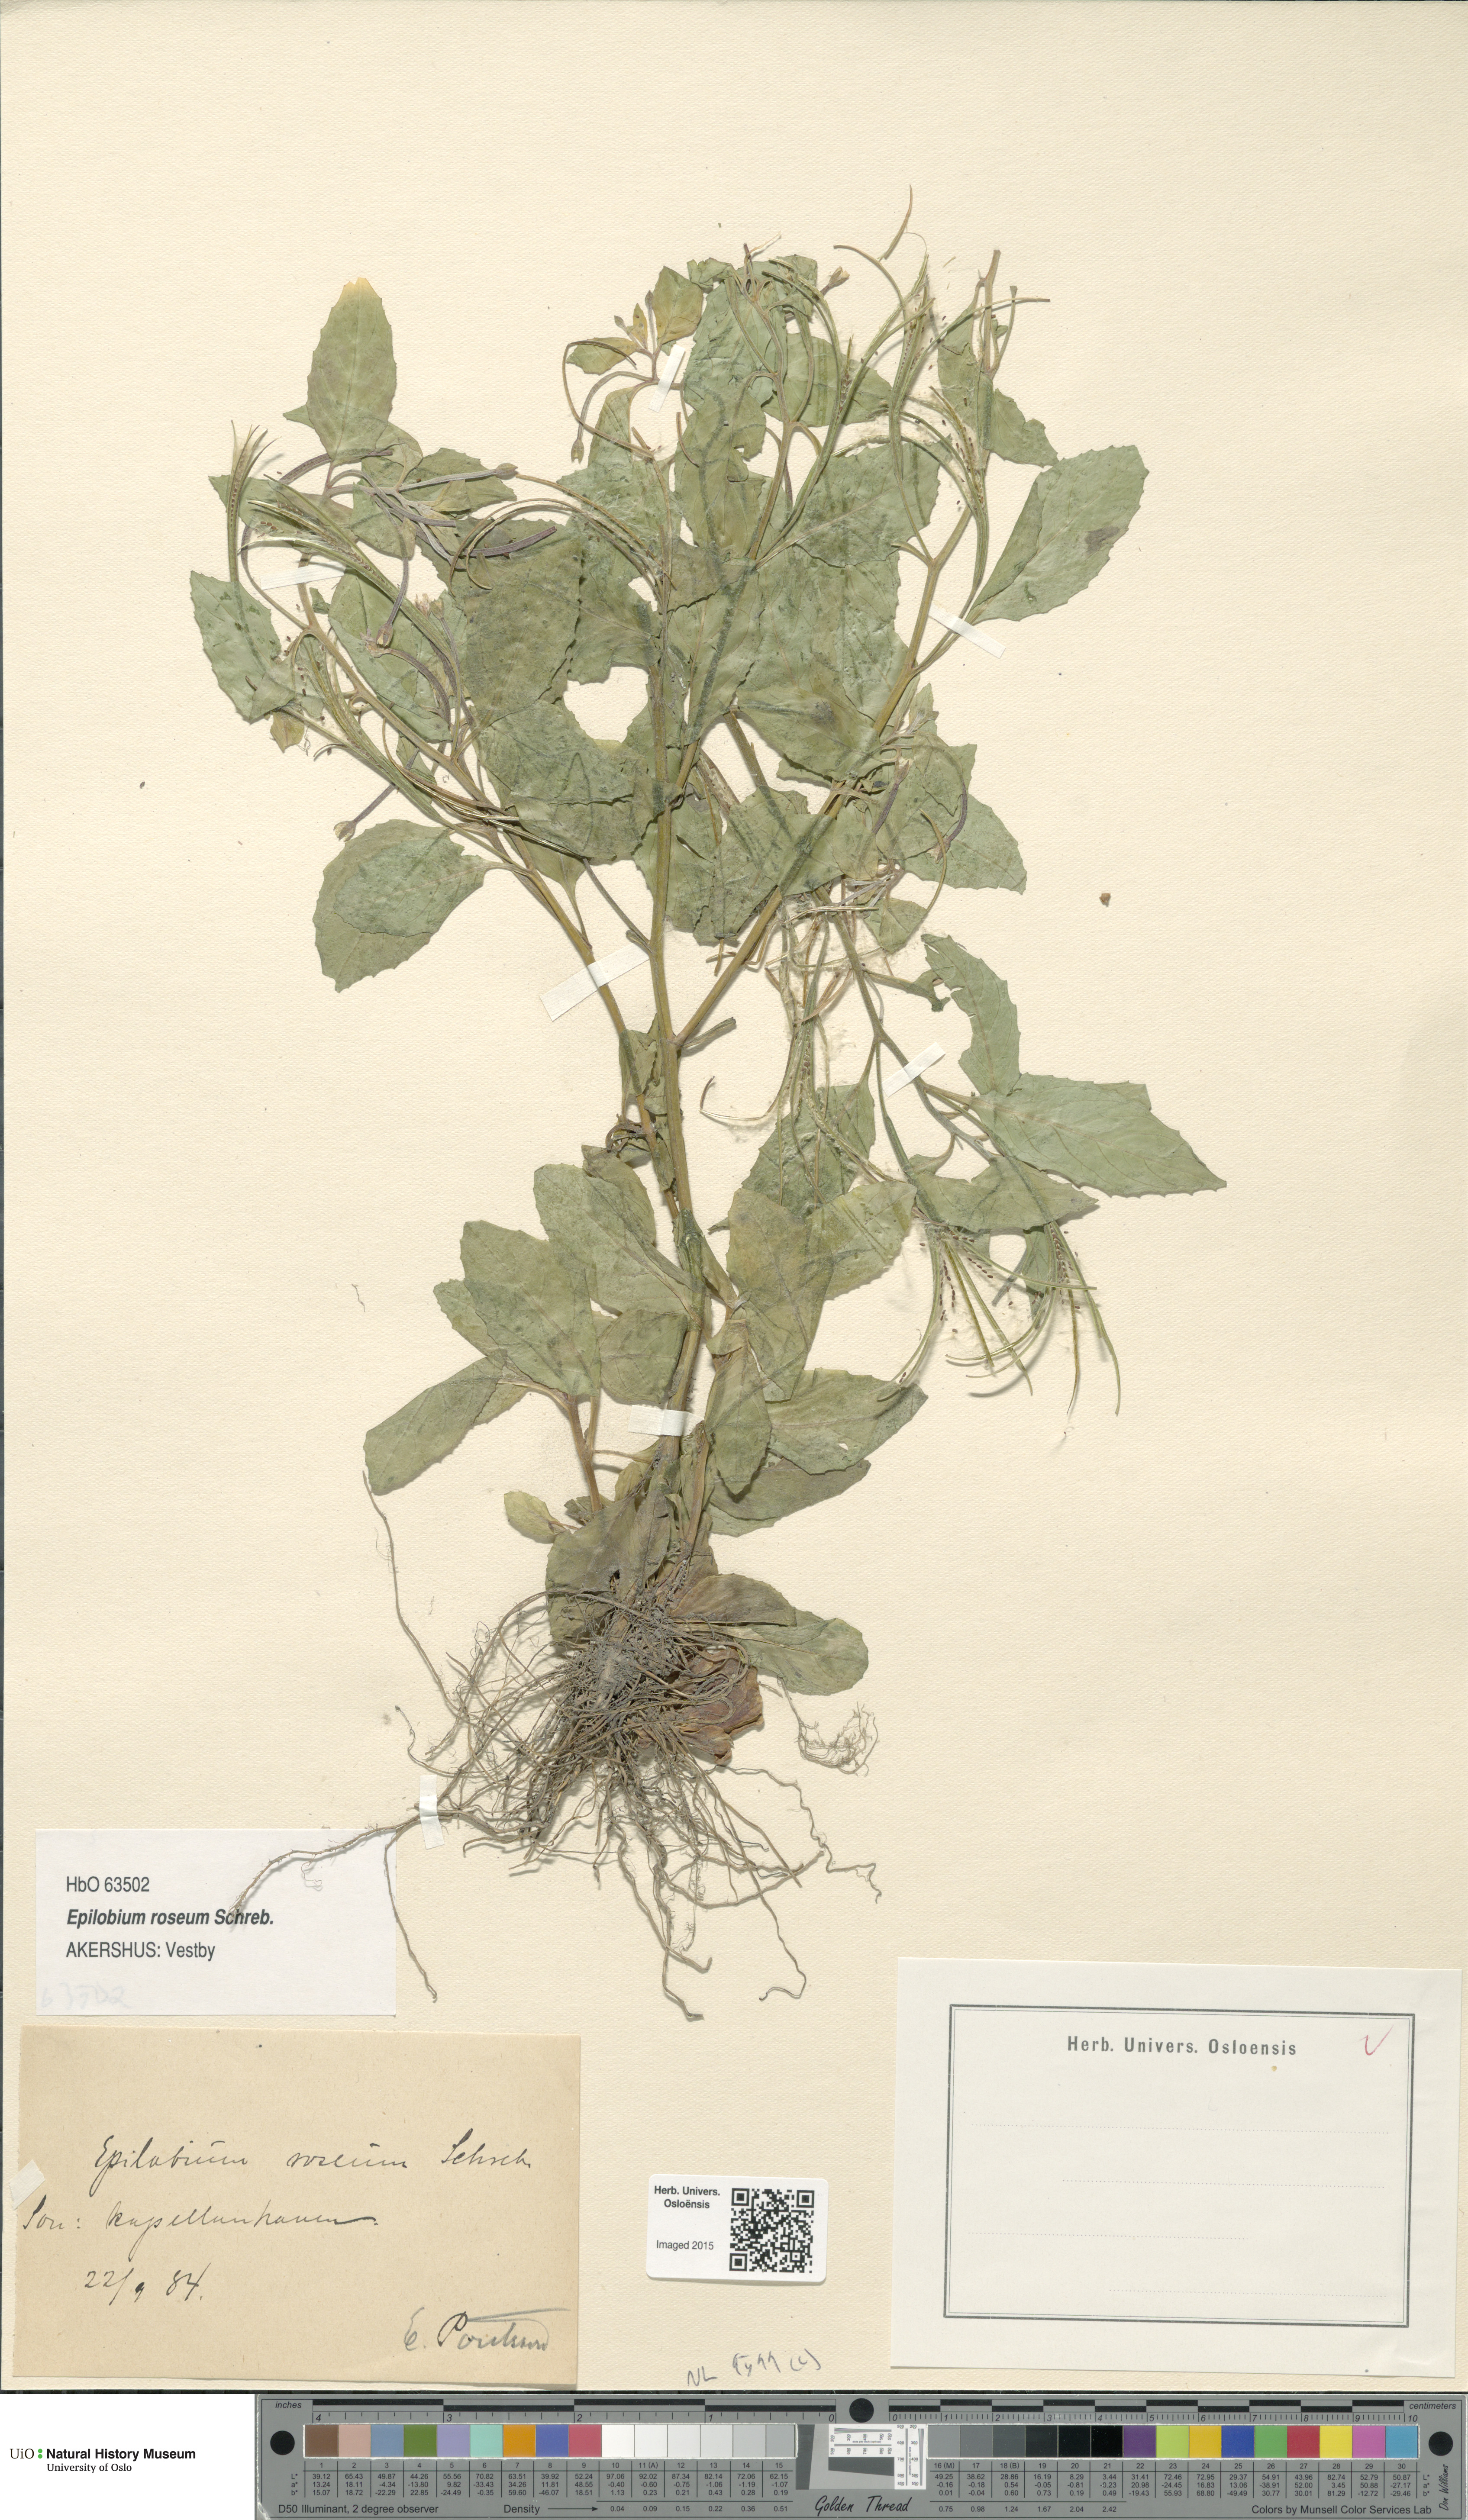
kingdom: Plantae
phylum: Tracheophyta
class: Magnoliopsida
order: Myrtales
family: Onagraceae
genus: Epilobium
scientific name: Epilobium roseum
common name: Pale willowherb
